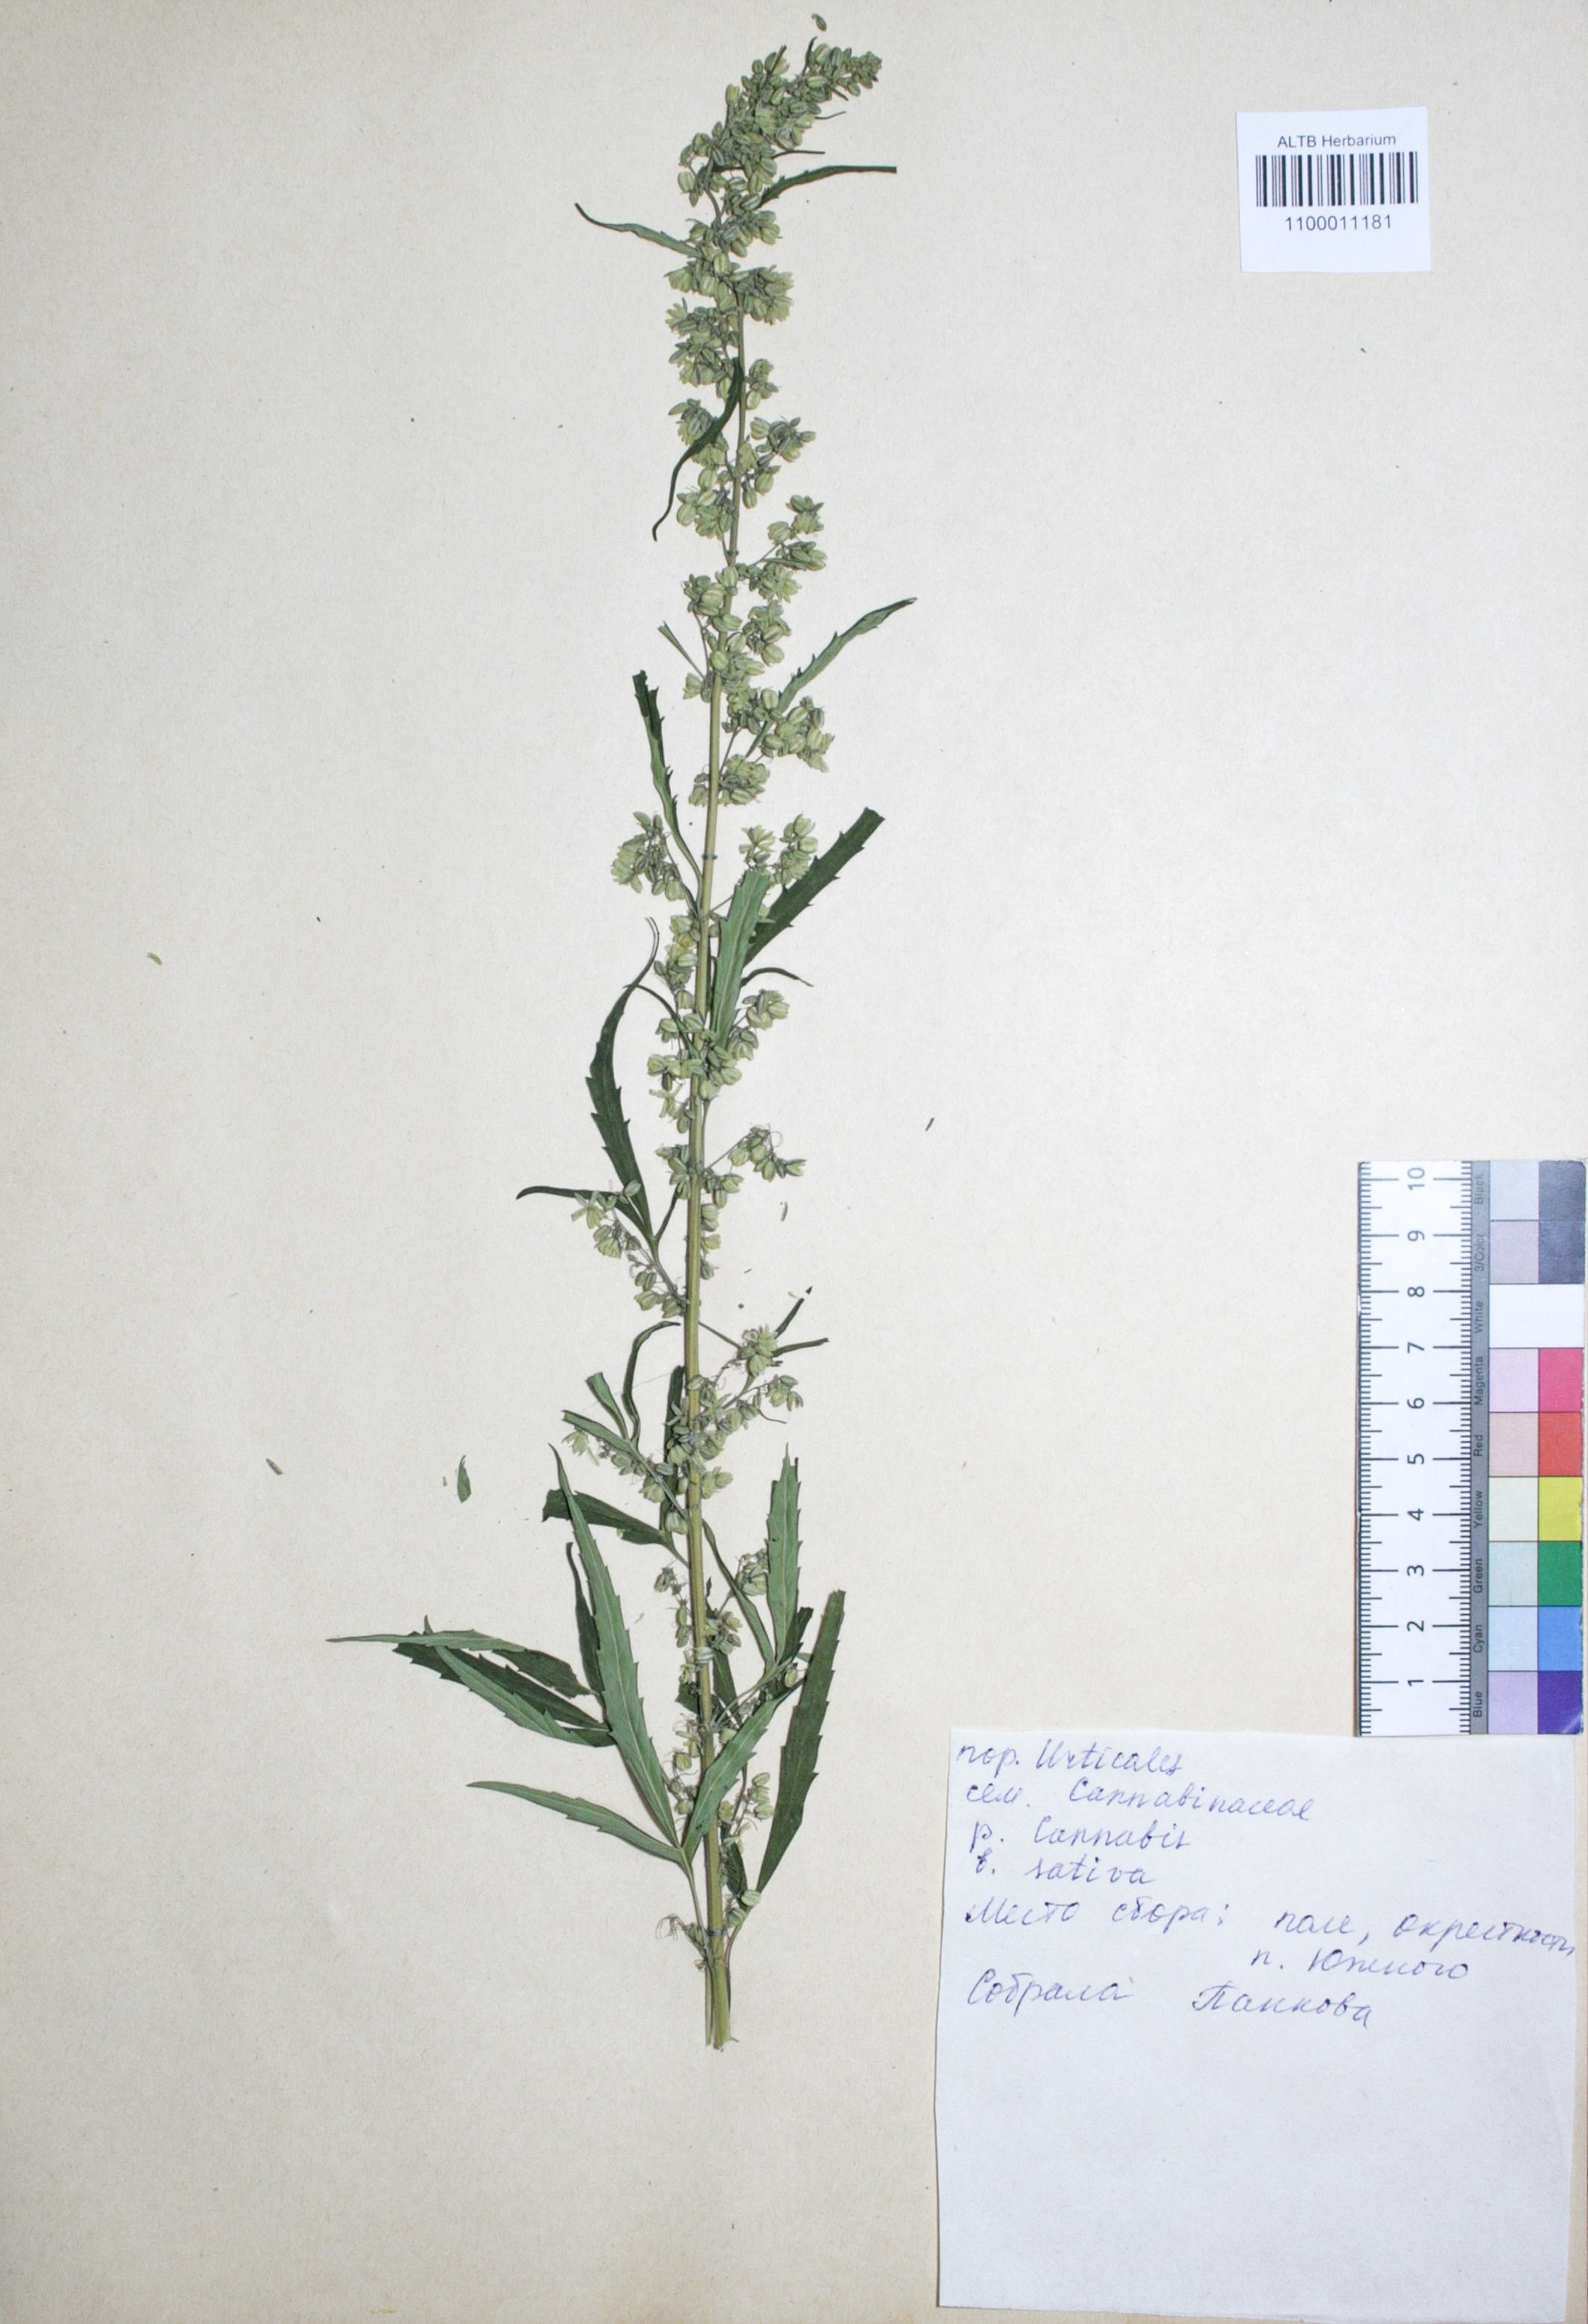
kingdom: Plantae
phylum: Tracheophyta
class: Magnoliopsida
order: Rosales
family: Cannabaceae
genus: Cannabis
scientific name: Cannabis sativa
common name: Hemp
